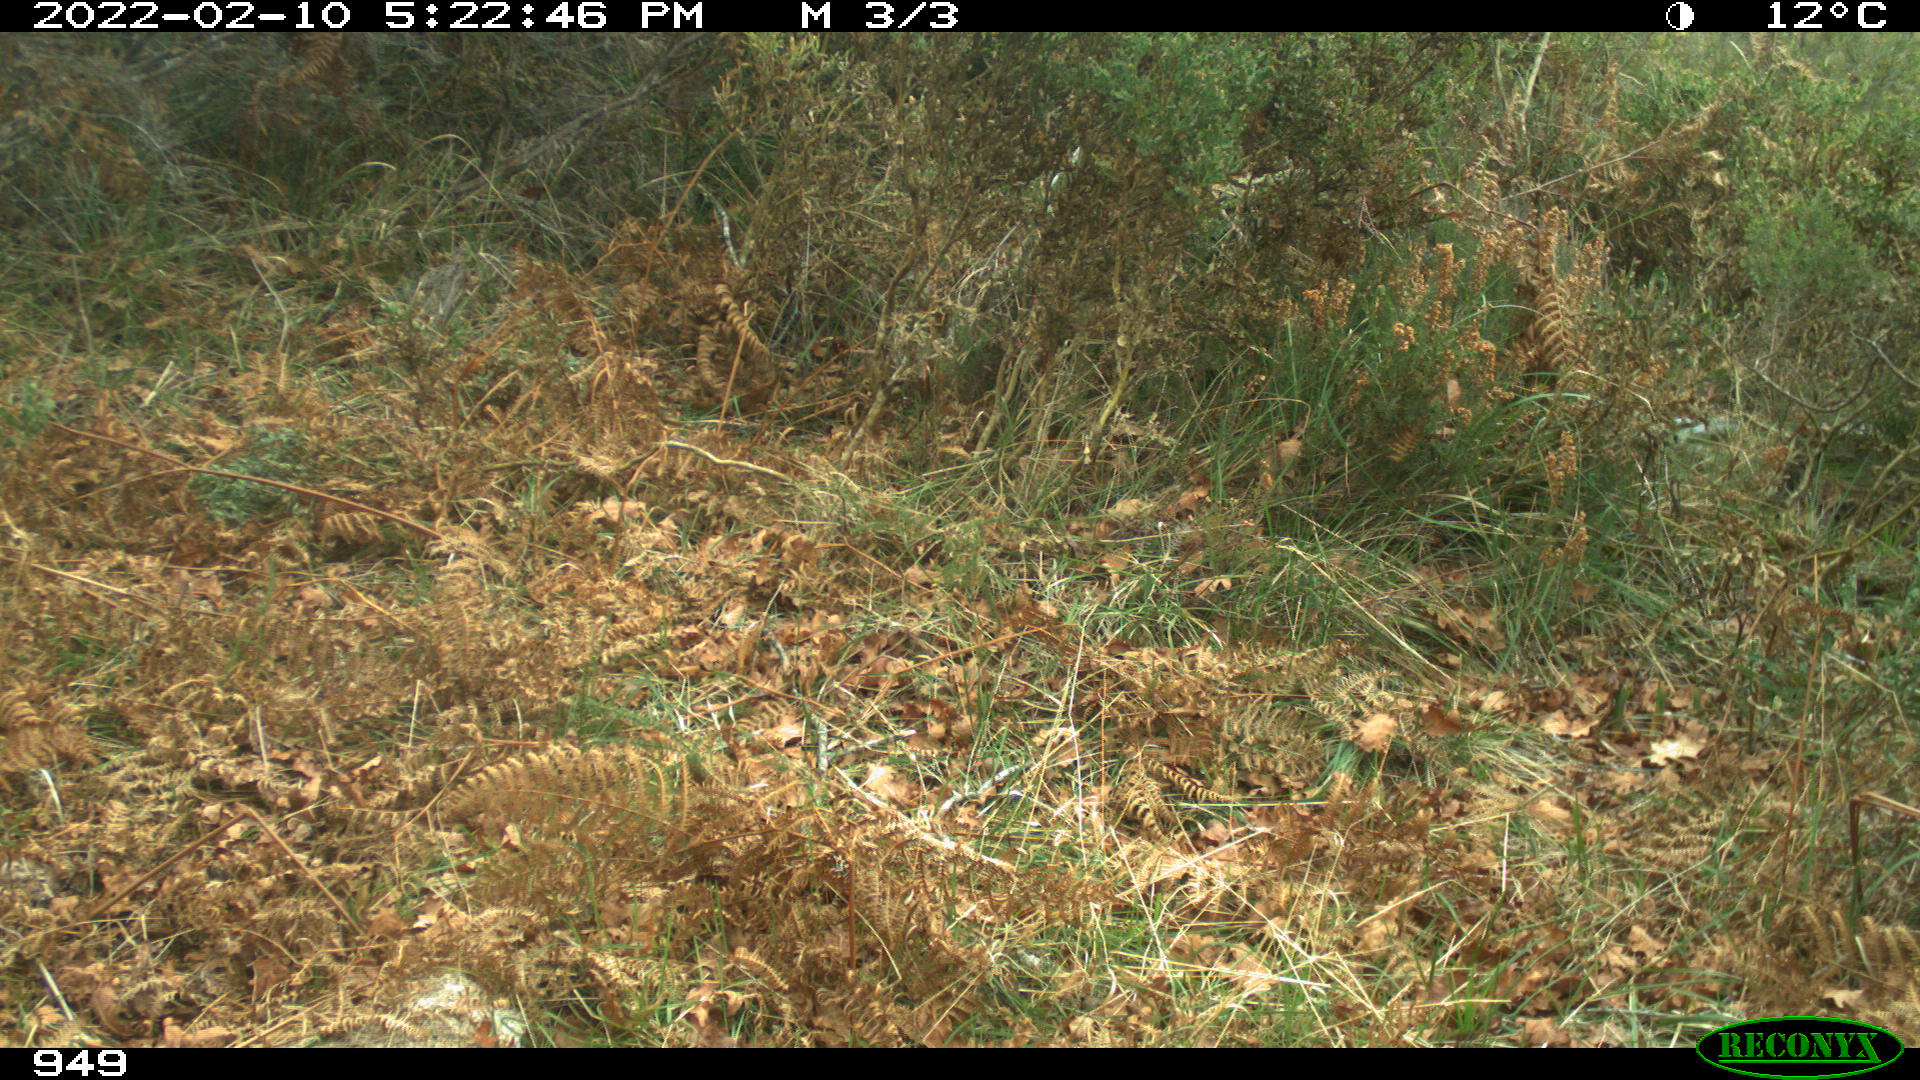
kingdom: Animalia
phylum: Chordata
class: Mammalia
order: Artiodactyla
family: Suidae
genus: Sus
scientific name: Sus scrofa
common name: Wild boar
